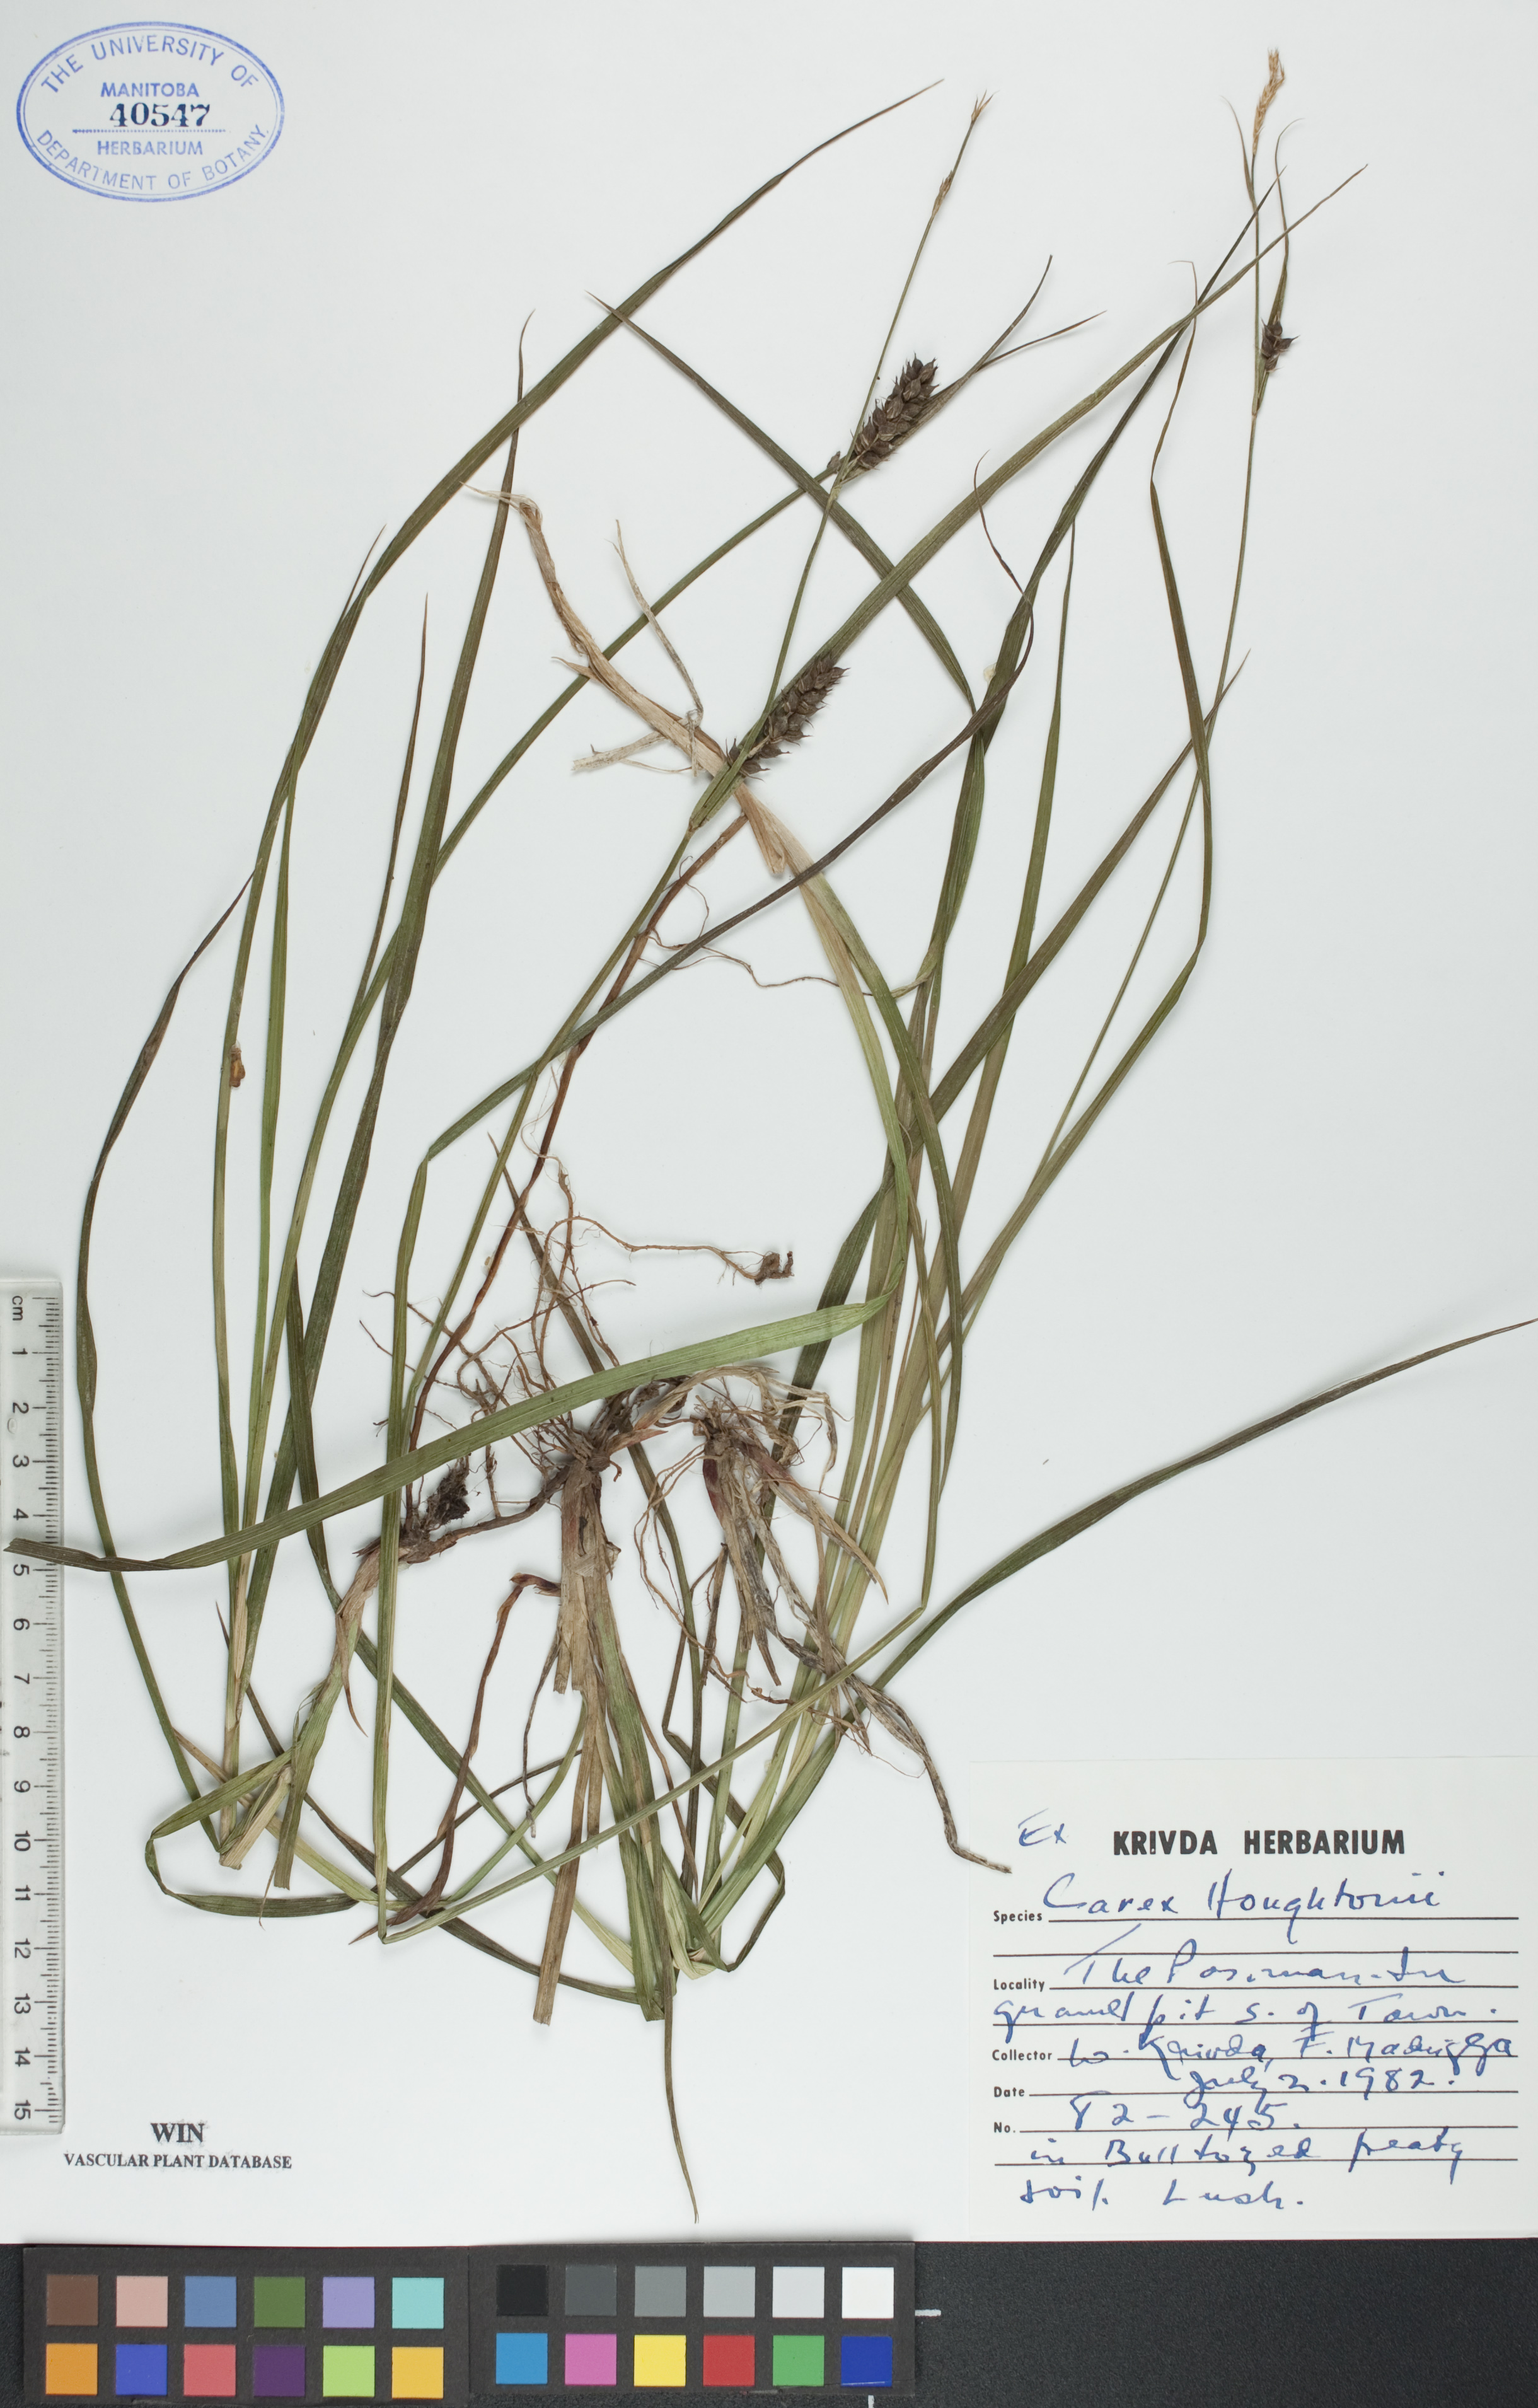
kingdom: Plantae
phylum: Tracheophyta
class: Liliopsida
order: Poales
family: Cyperaceae
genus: Carex
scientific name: Carex houghtoniana
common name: Houghton's sedge
